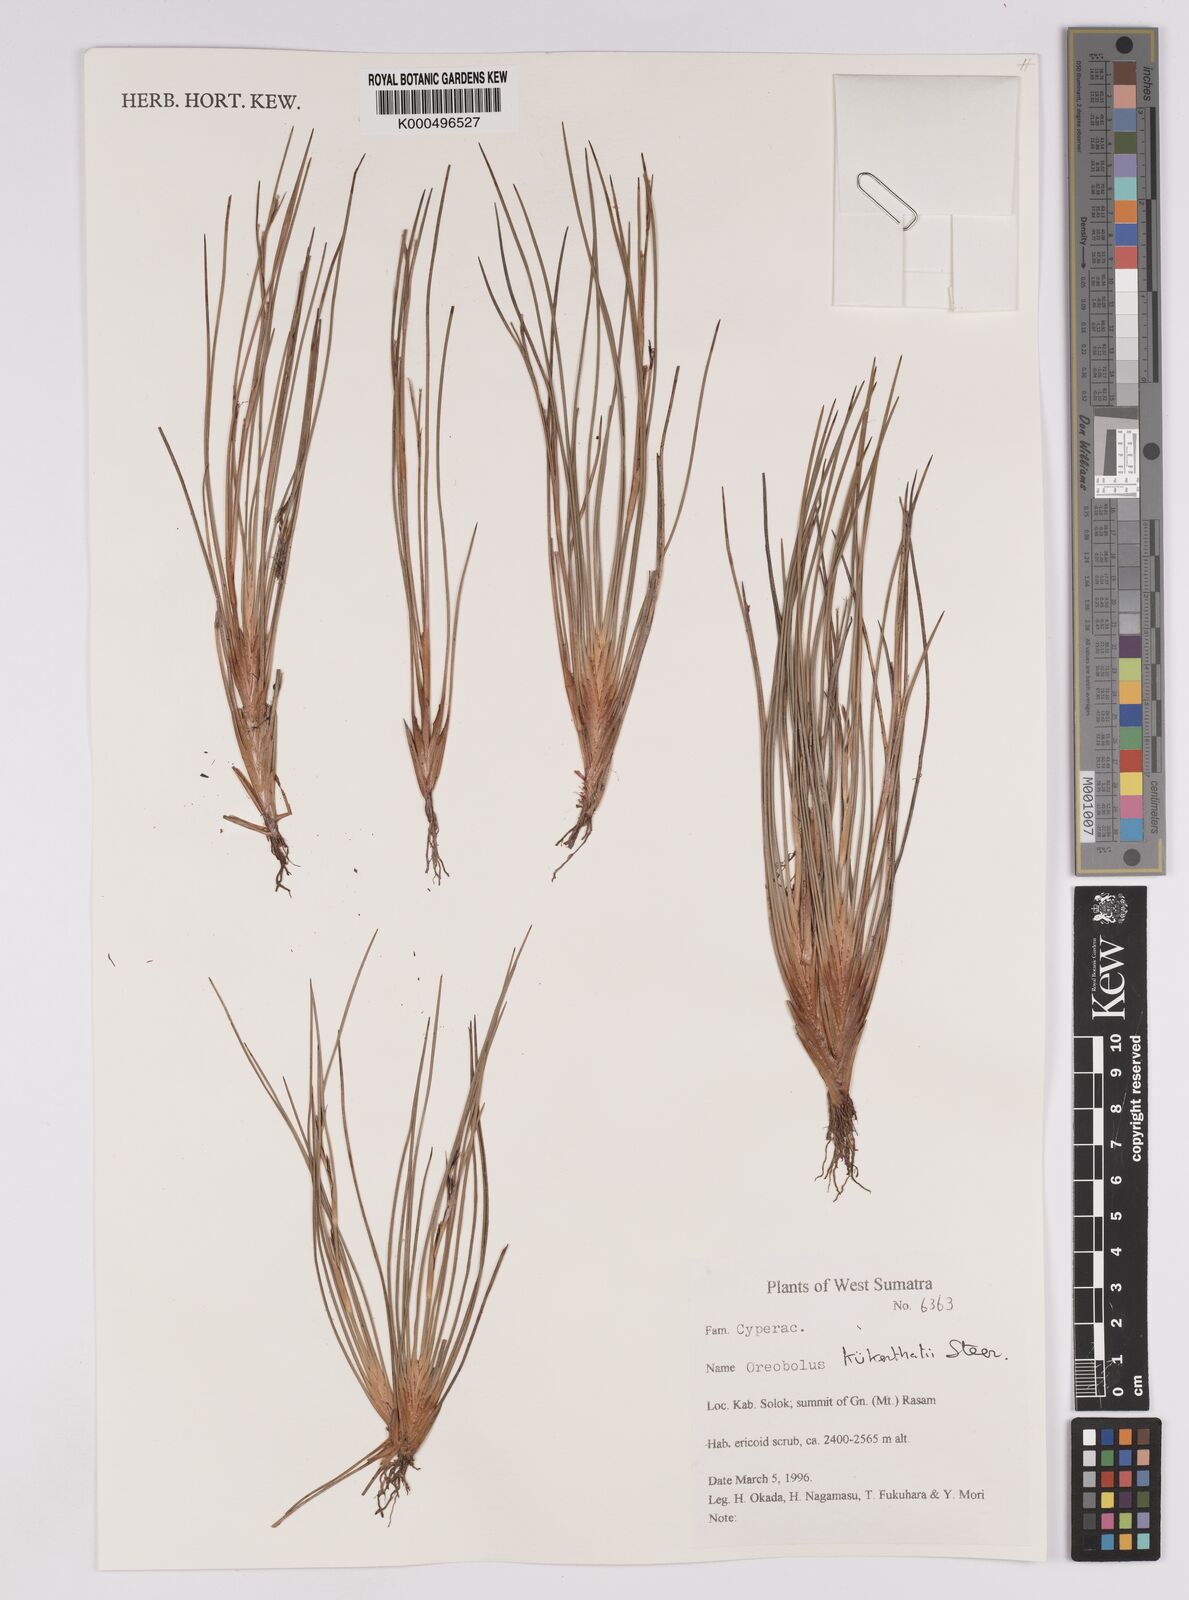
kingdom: Plantae
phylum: Tracheophyta
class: Liliopsida
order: Poales
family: Cyperaceae
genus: Oreobolus
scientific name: Oreobolus
